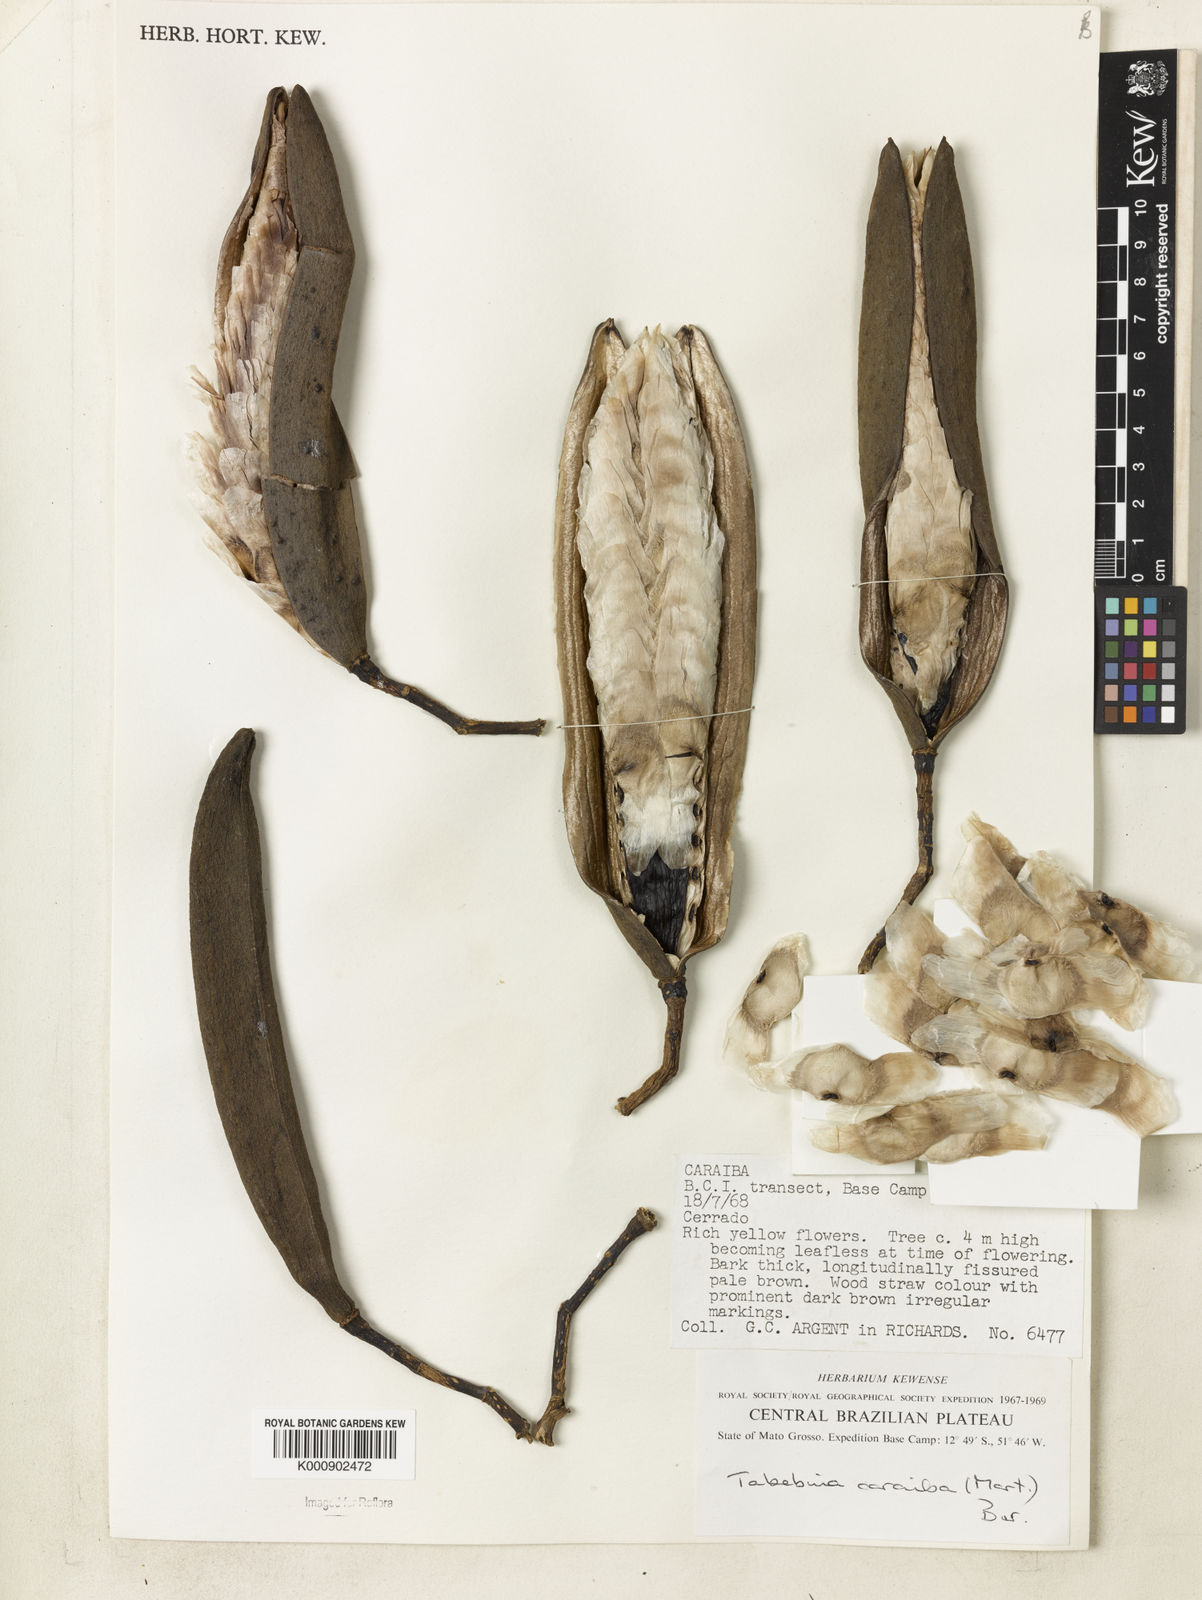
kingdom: Plantae
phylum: Tracheophyta
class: Magnoliopsida
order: Lamiales
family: Bignoniaceae
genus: Tabebuia
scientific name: Tabebuia aurea
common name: Caribbean trumpet-tree
